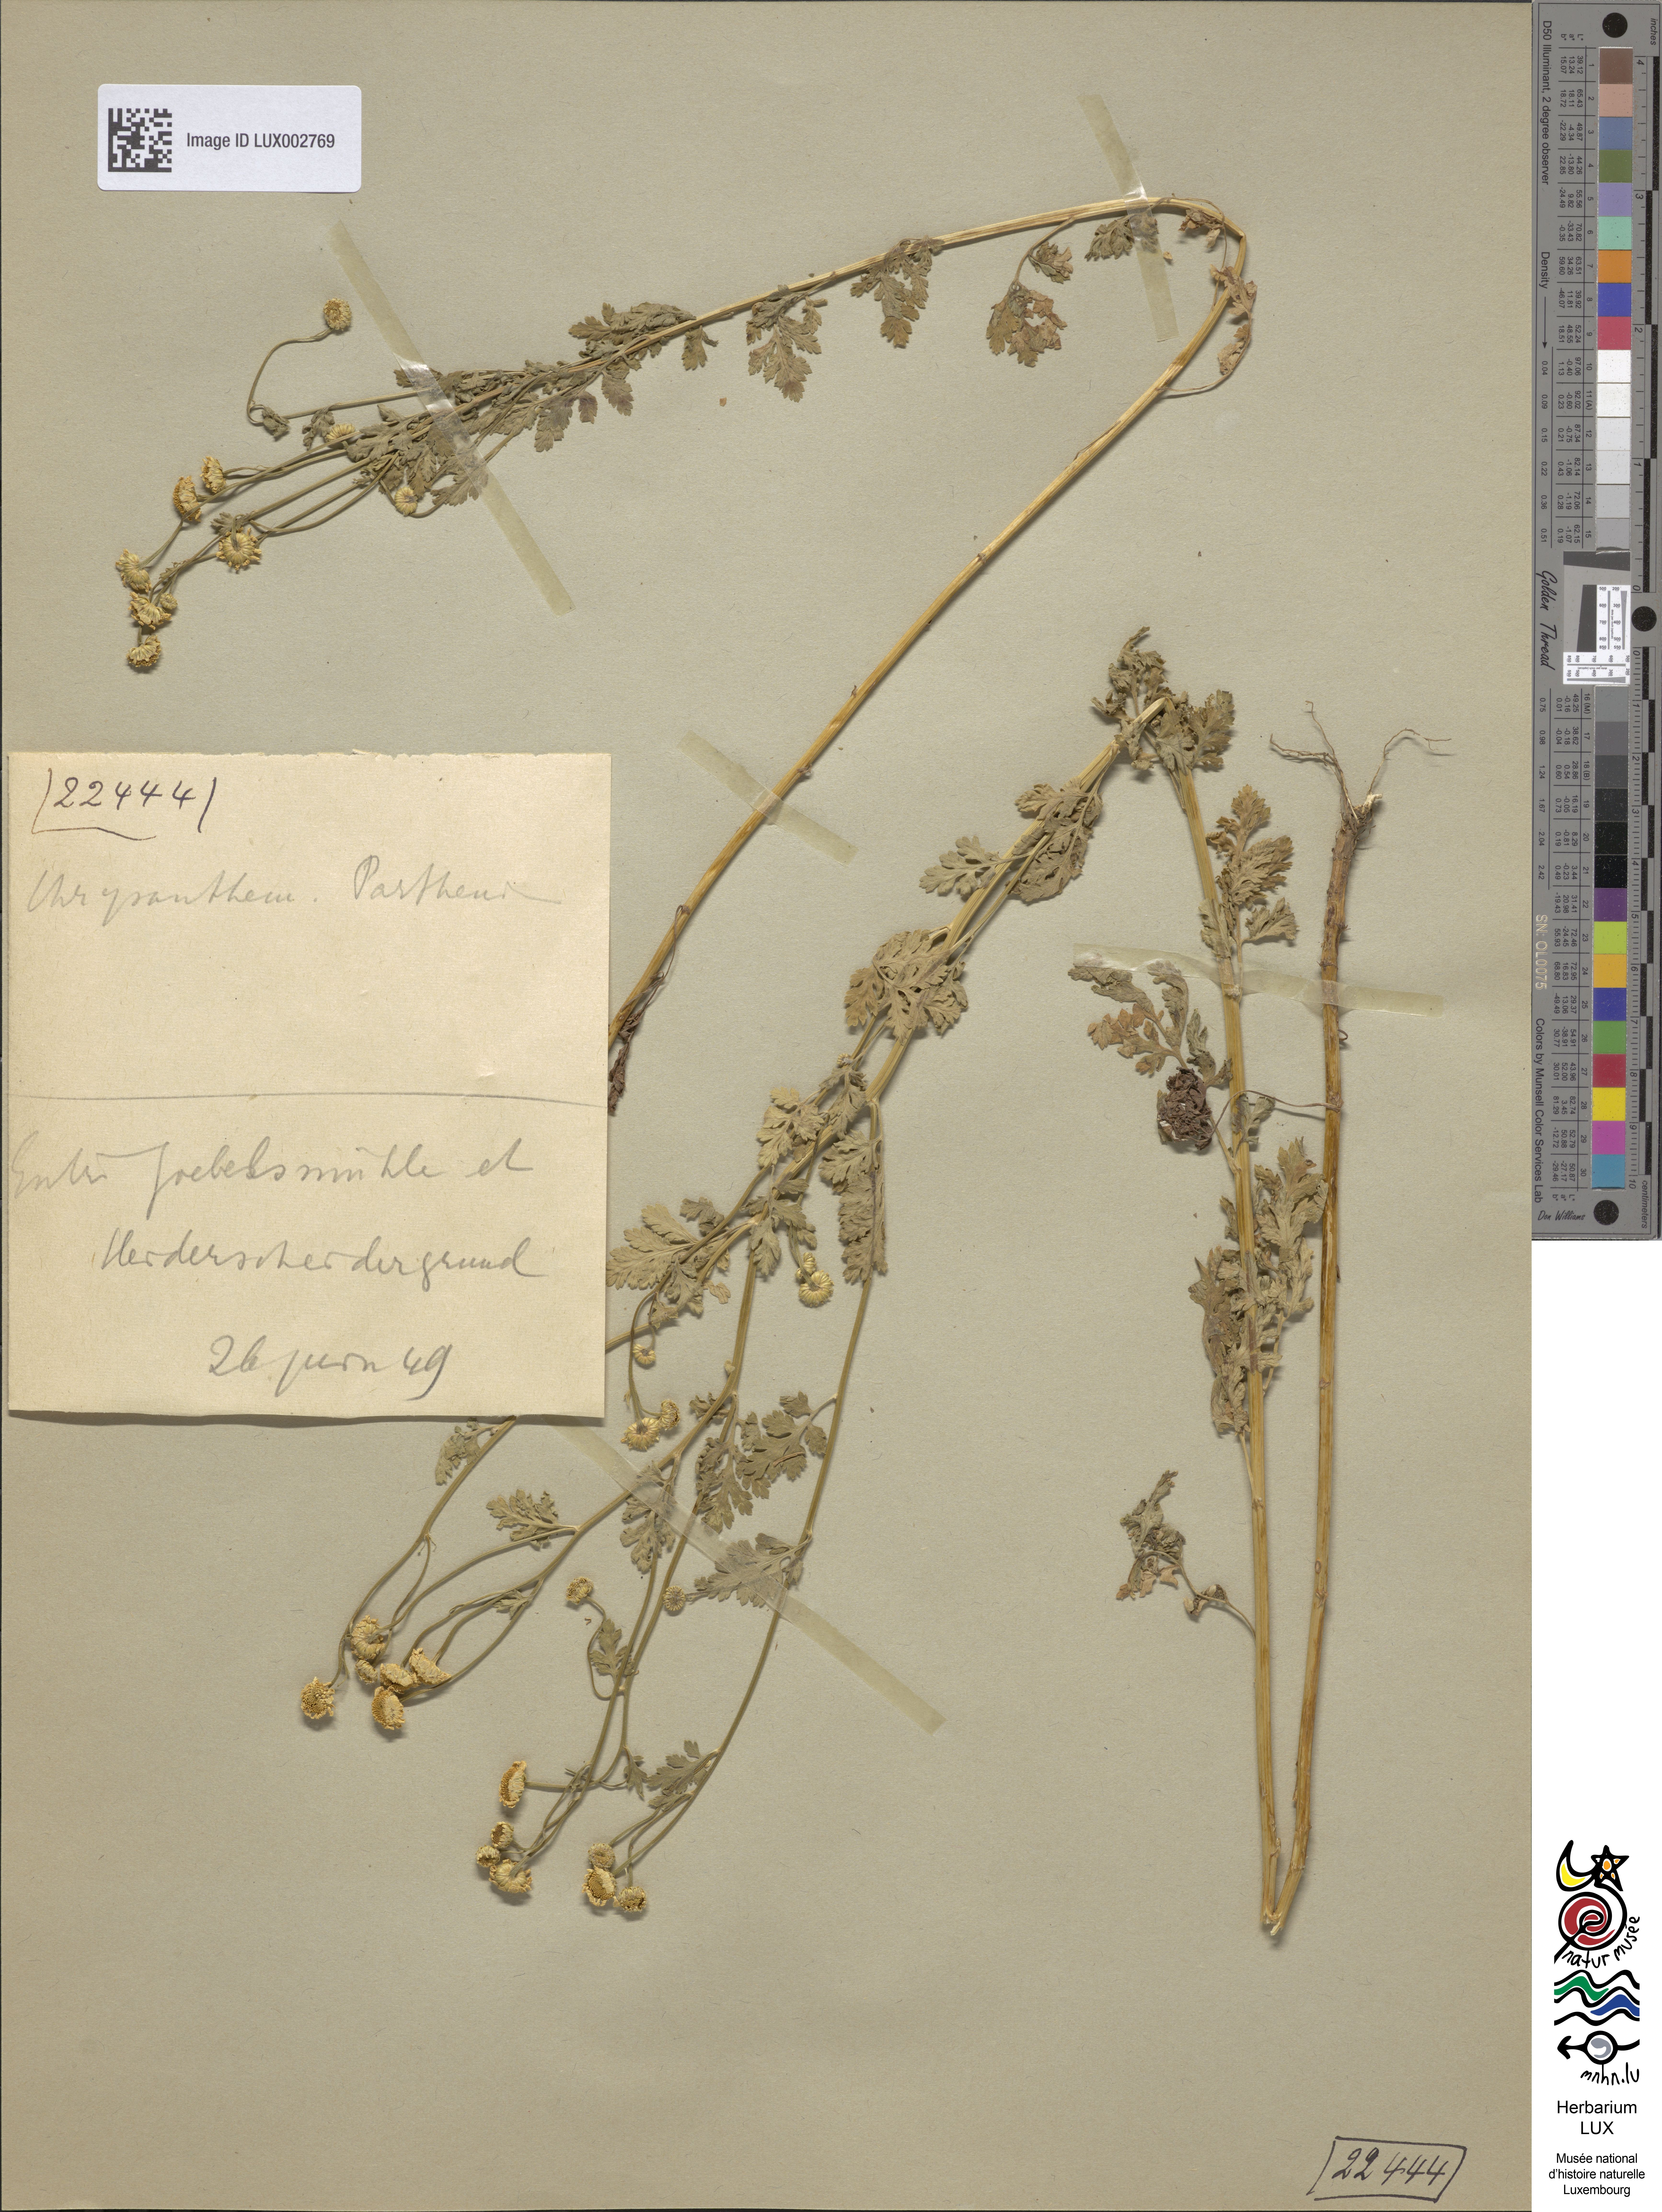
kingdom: Plantae
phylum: Tracheophyta
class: Magnoliopsida
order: Asterales
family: Asteraceae
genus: Tanacetum
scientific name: Tanacetum parthenium
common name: Feverfew
